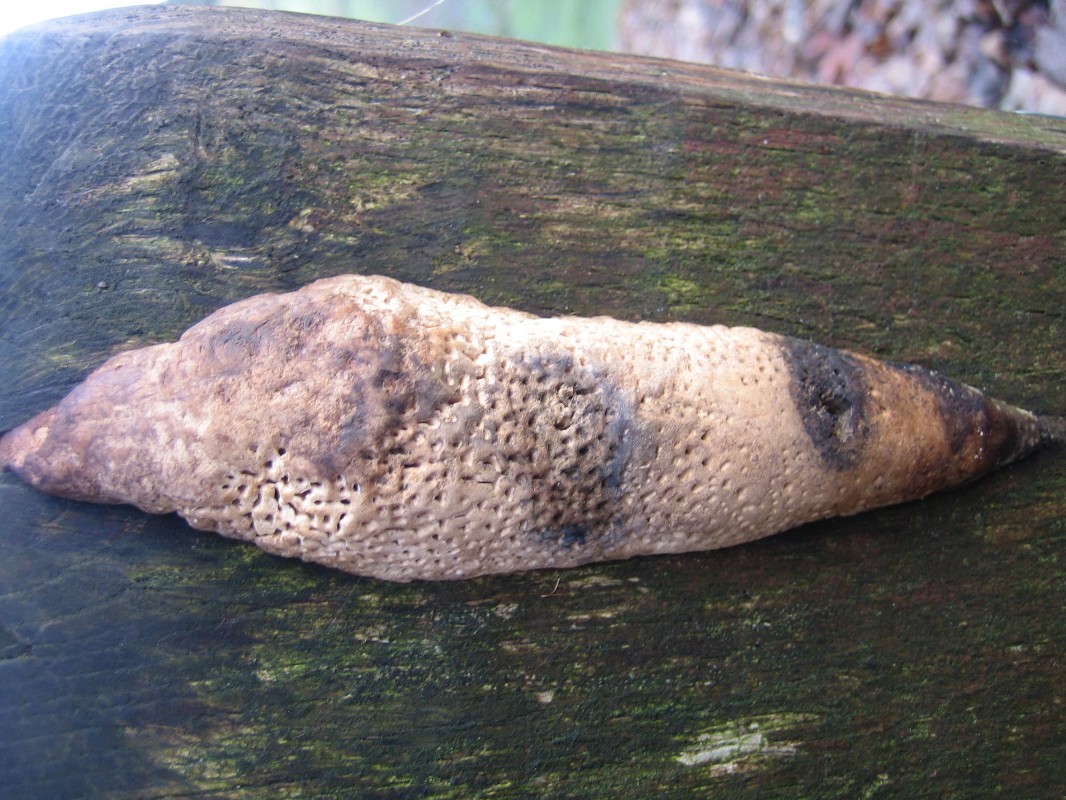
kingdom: Fungi
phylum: Basidiomycota
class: Agaricomycetes
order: Polyporales
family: Fomitopsidaceae
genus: Daedalea
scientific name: Daedalea quercina
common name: ege-labyrintsvamp
